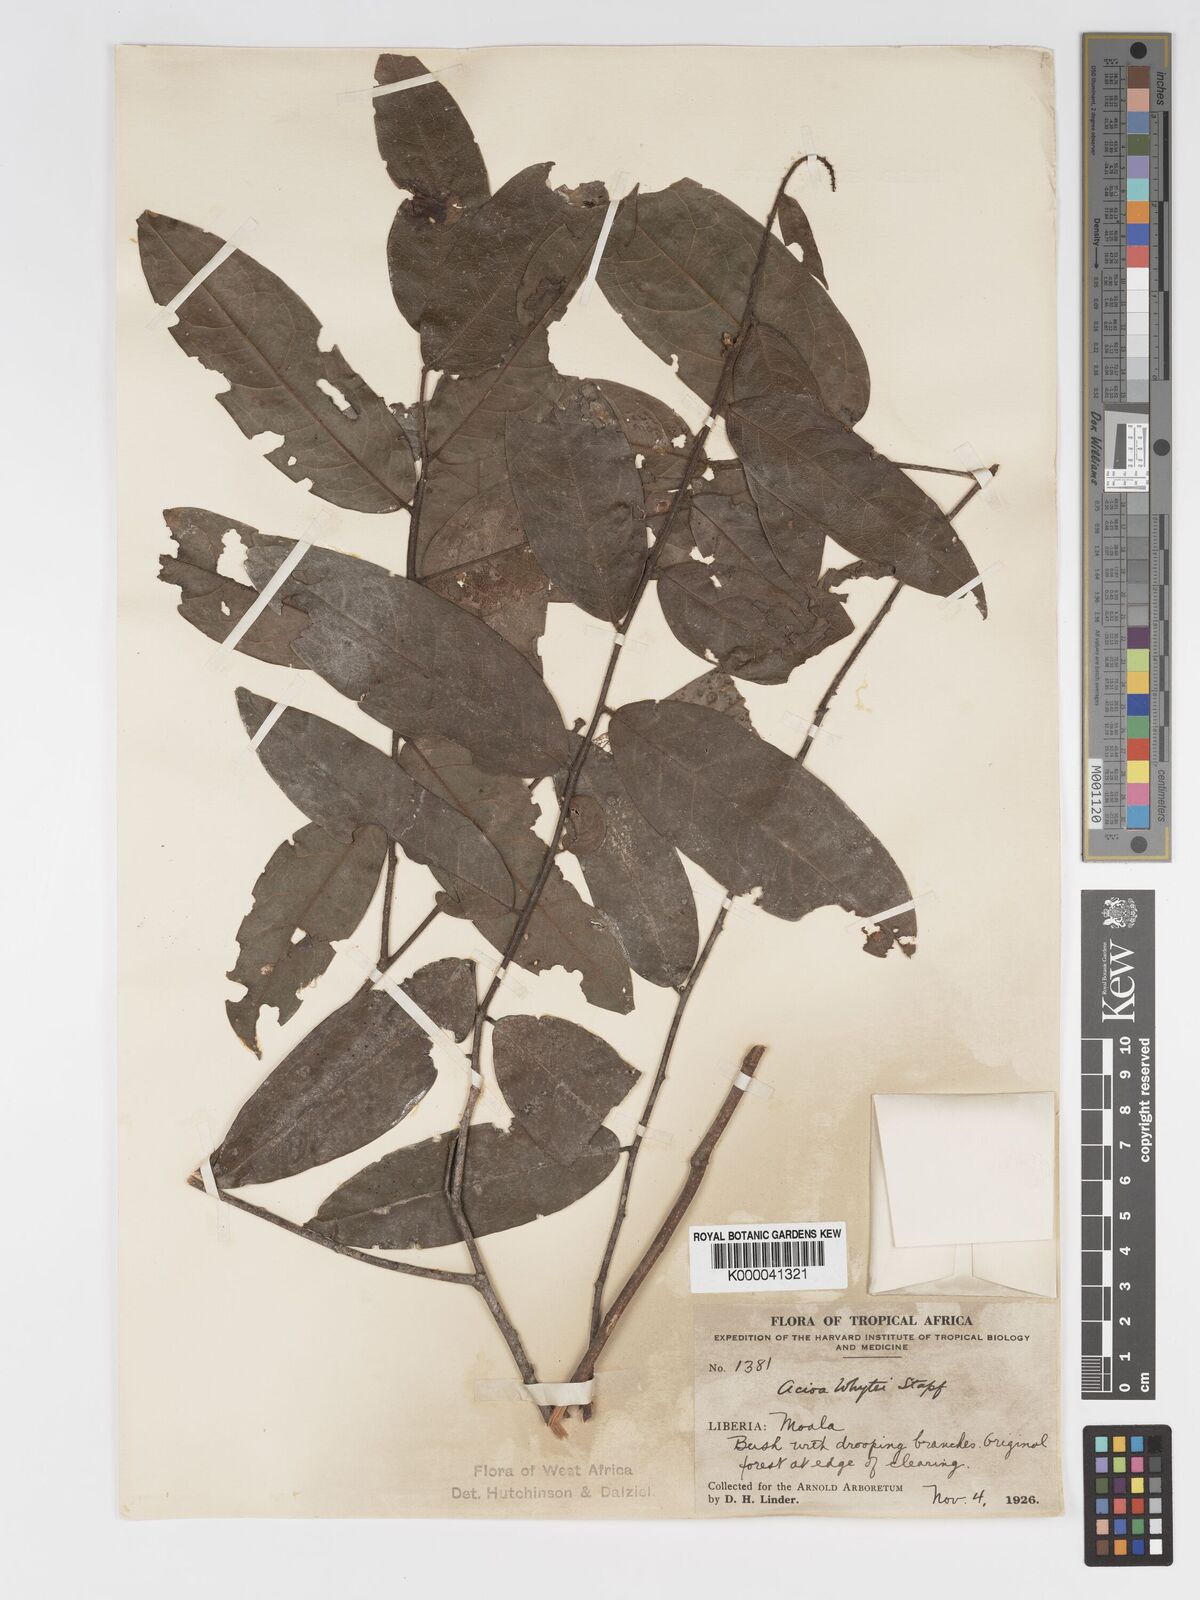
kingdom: Plantae
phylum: Tracheophyta
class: Magnoliopsida
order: Malpighiales
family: Chrysobalanaceae
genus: Dactyladenia
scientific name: Dactyladenia whytei
